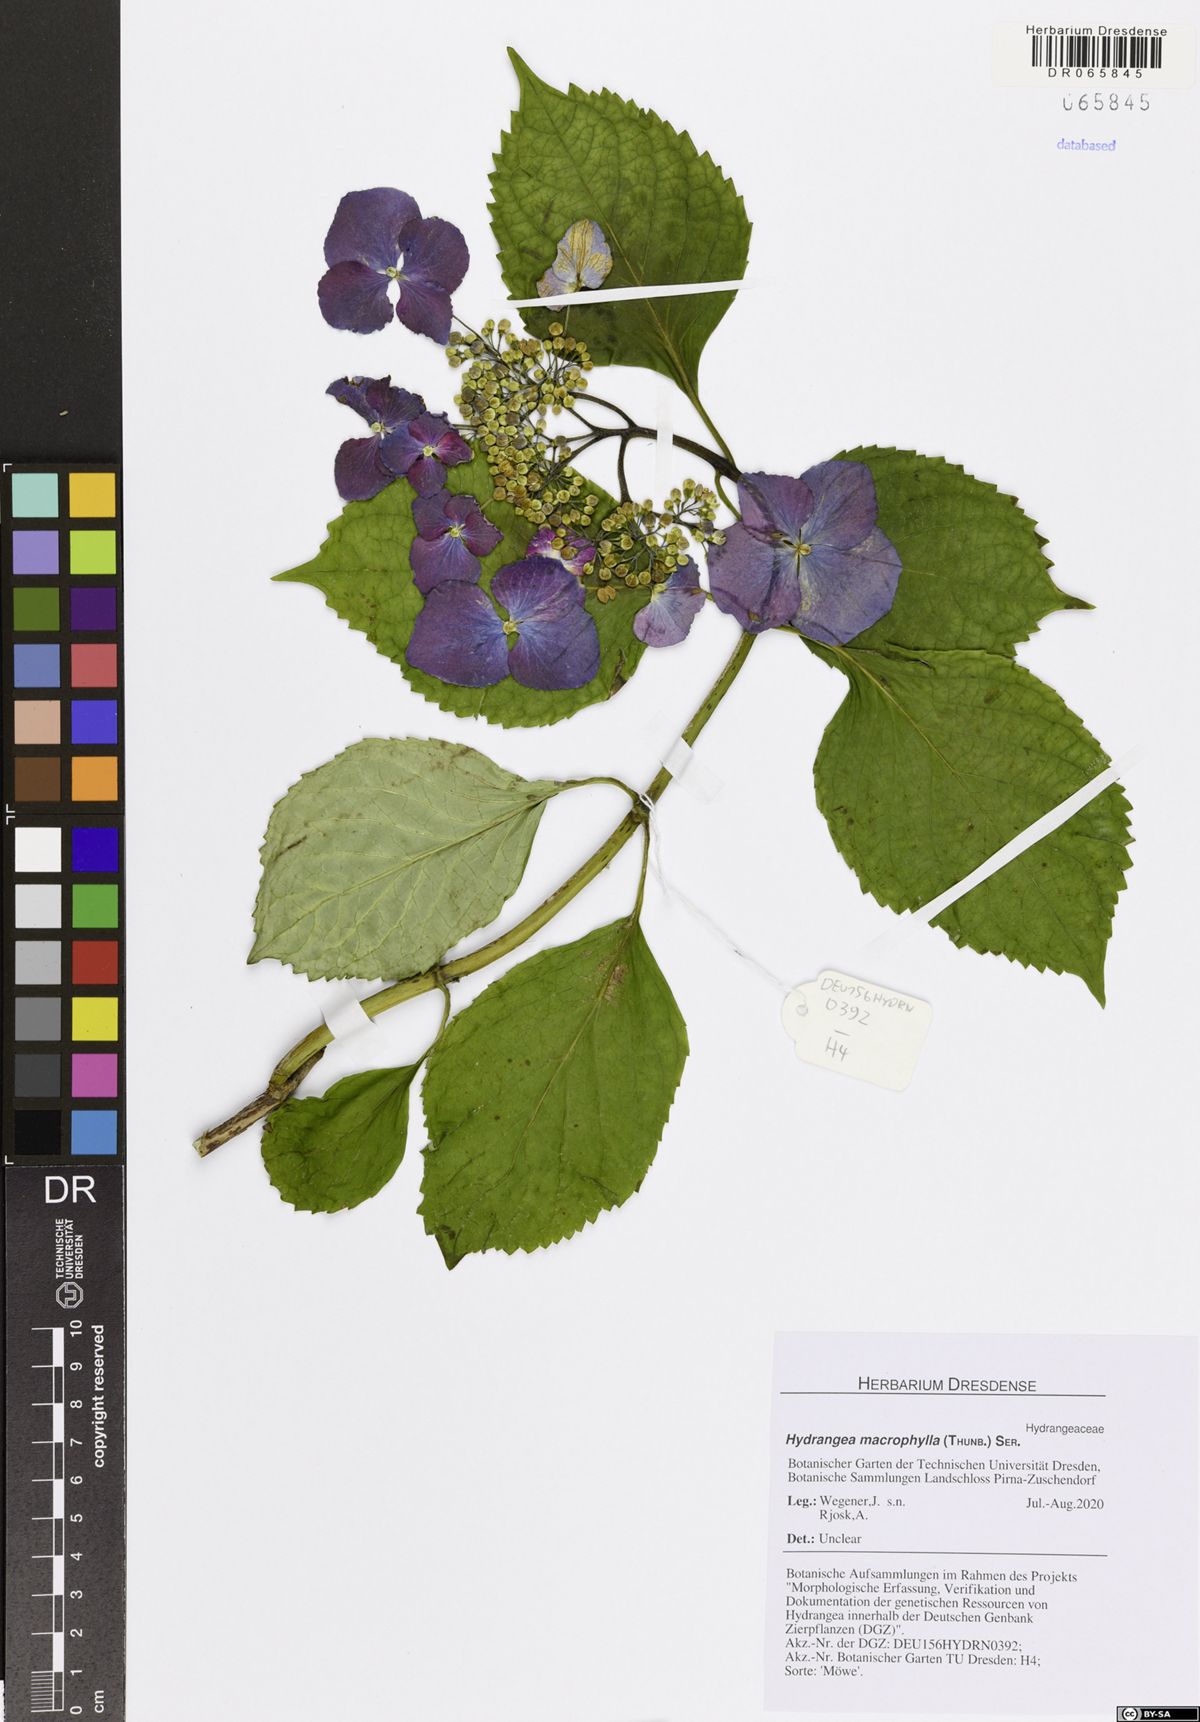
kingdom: Plantae
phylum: Tracheophyta
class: Magnoliopsida
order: Cornales
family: Hydrangeaceae
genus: Hydrangea
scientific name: Hydrangea macrophylla
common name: Hydrangea
